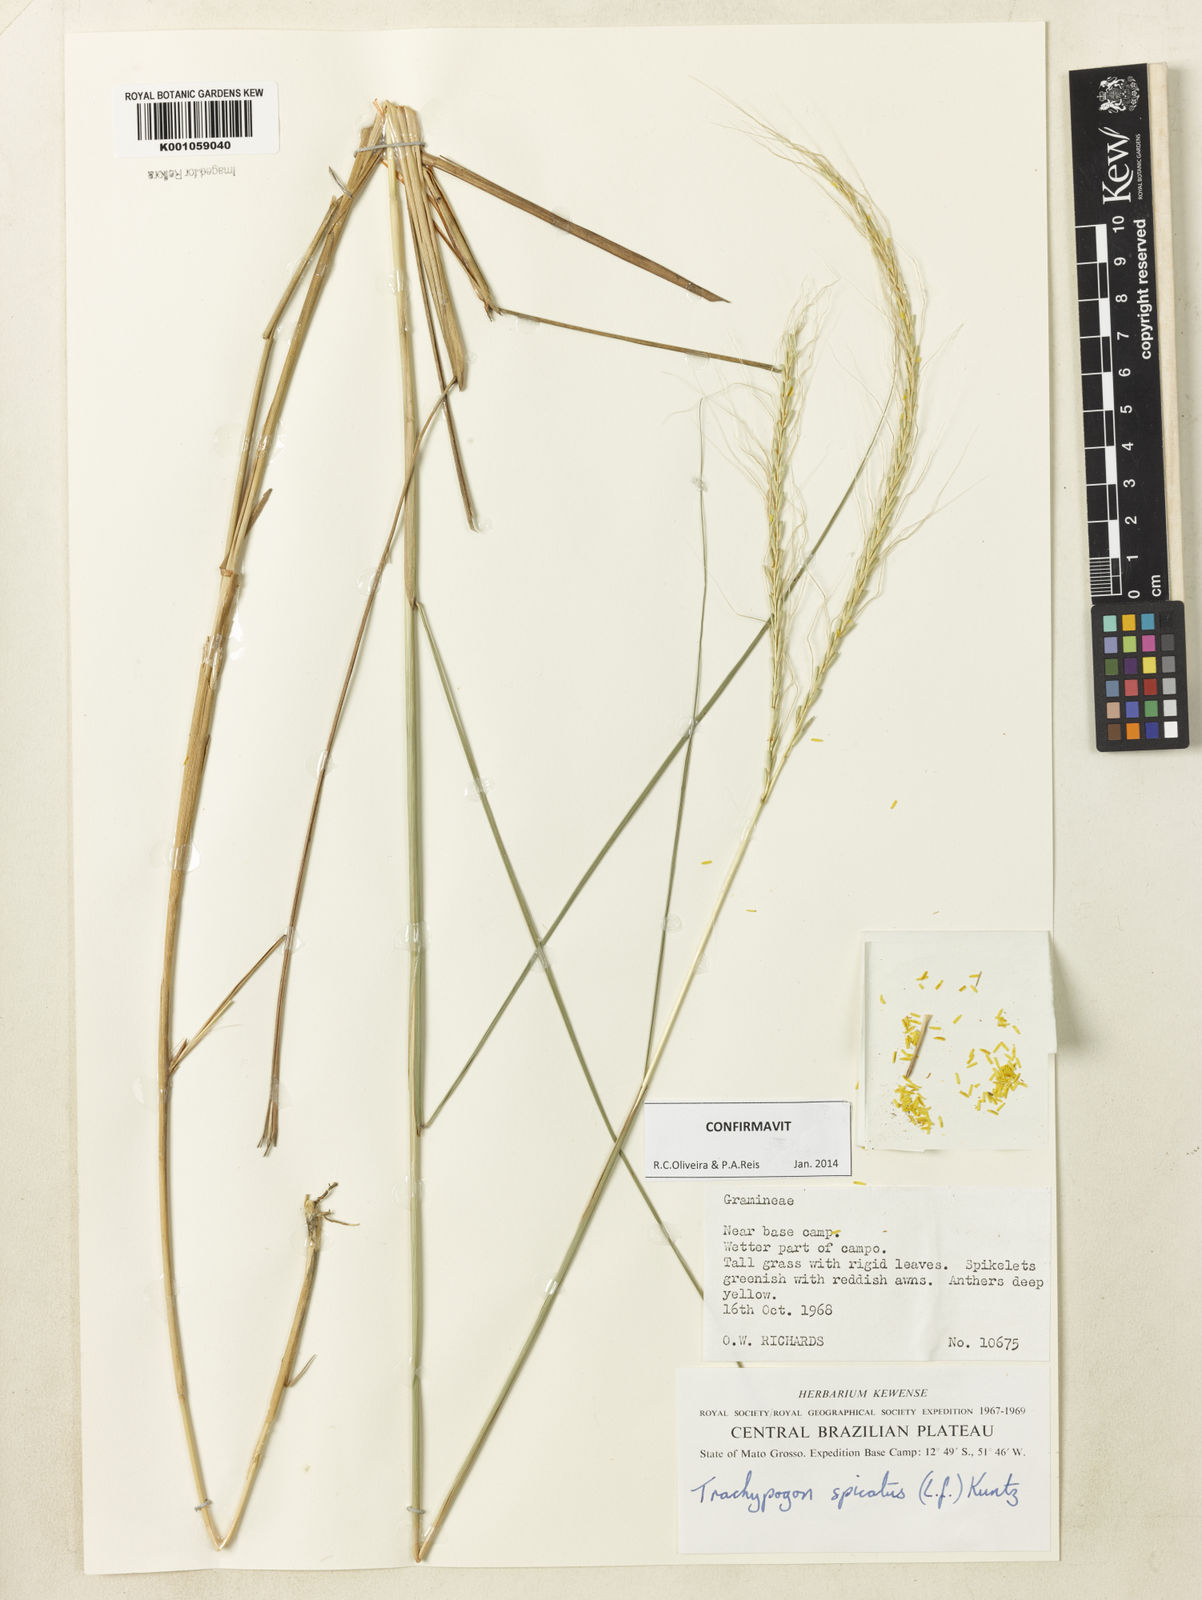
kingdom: Plantae
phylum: Tracheophyta
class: Liliopsida
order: Poales
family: Poaceae
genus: Trachypogon
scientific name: Trachypogon spicatus
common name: Crinkle-awn
